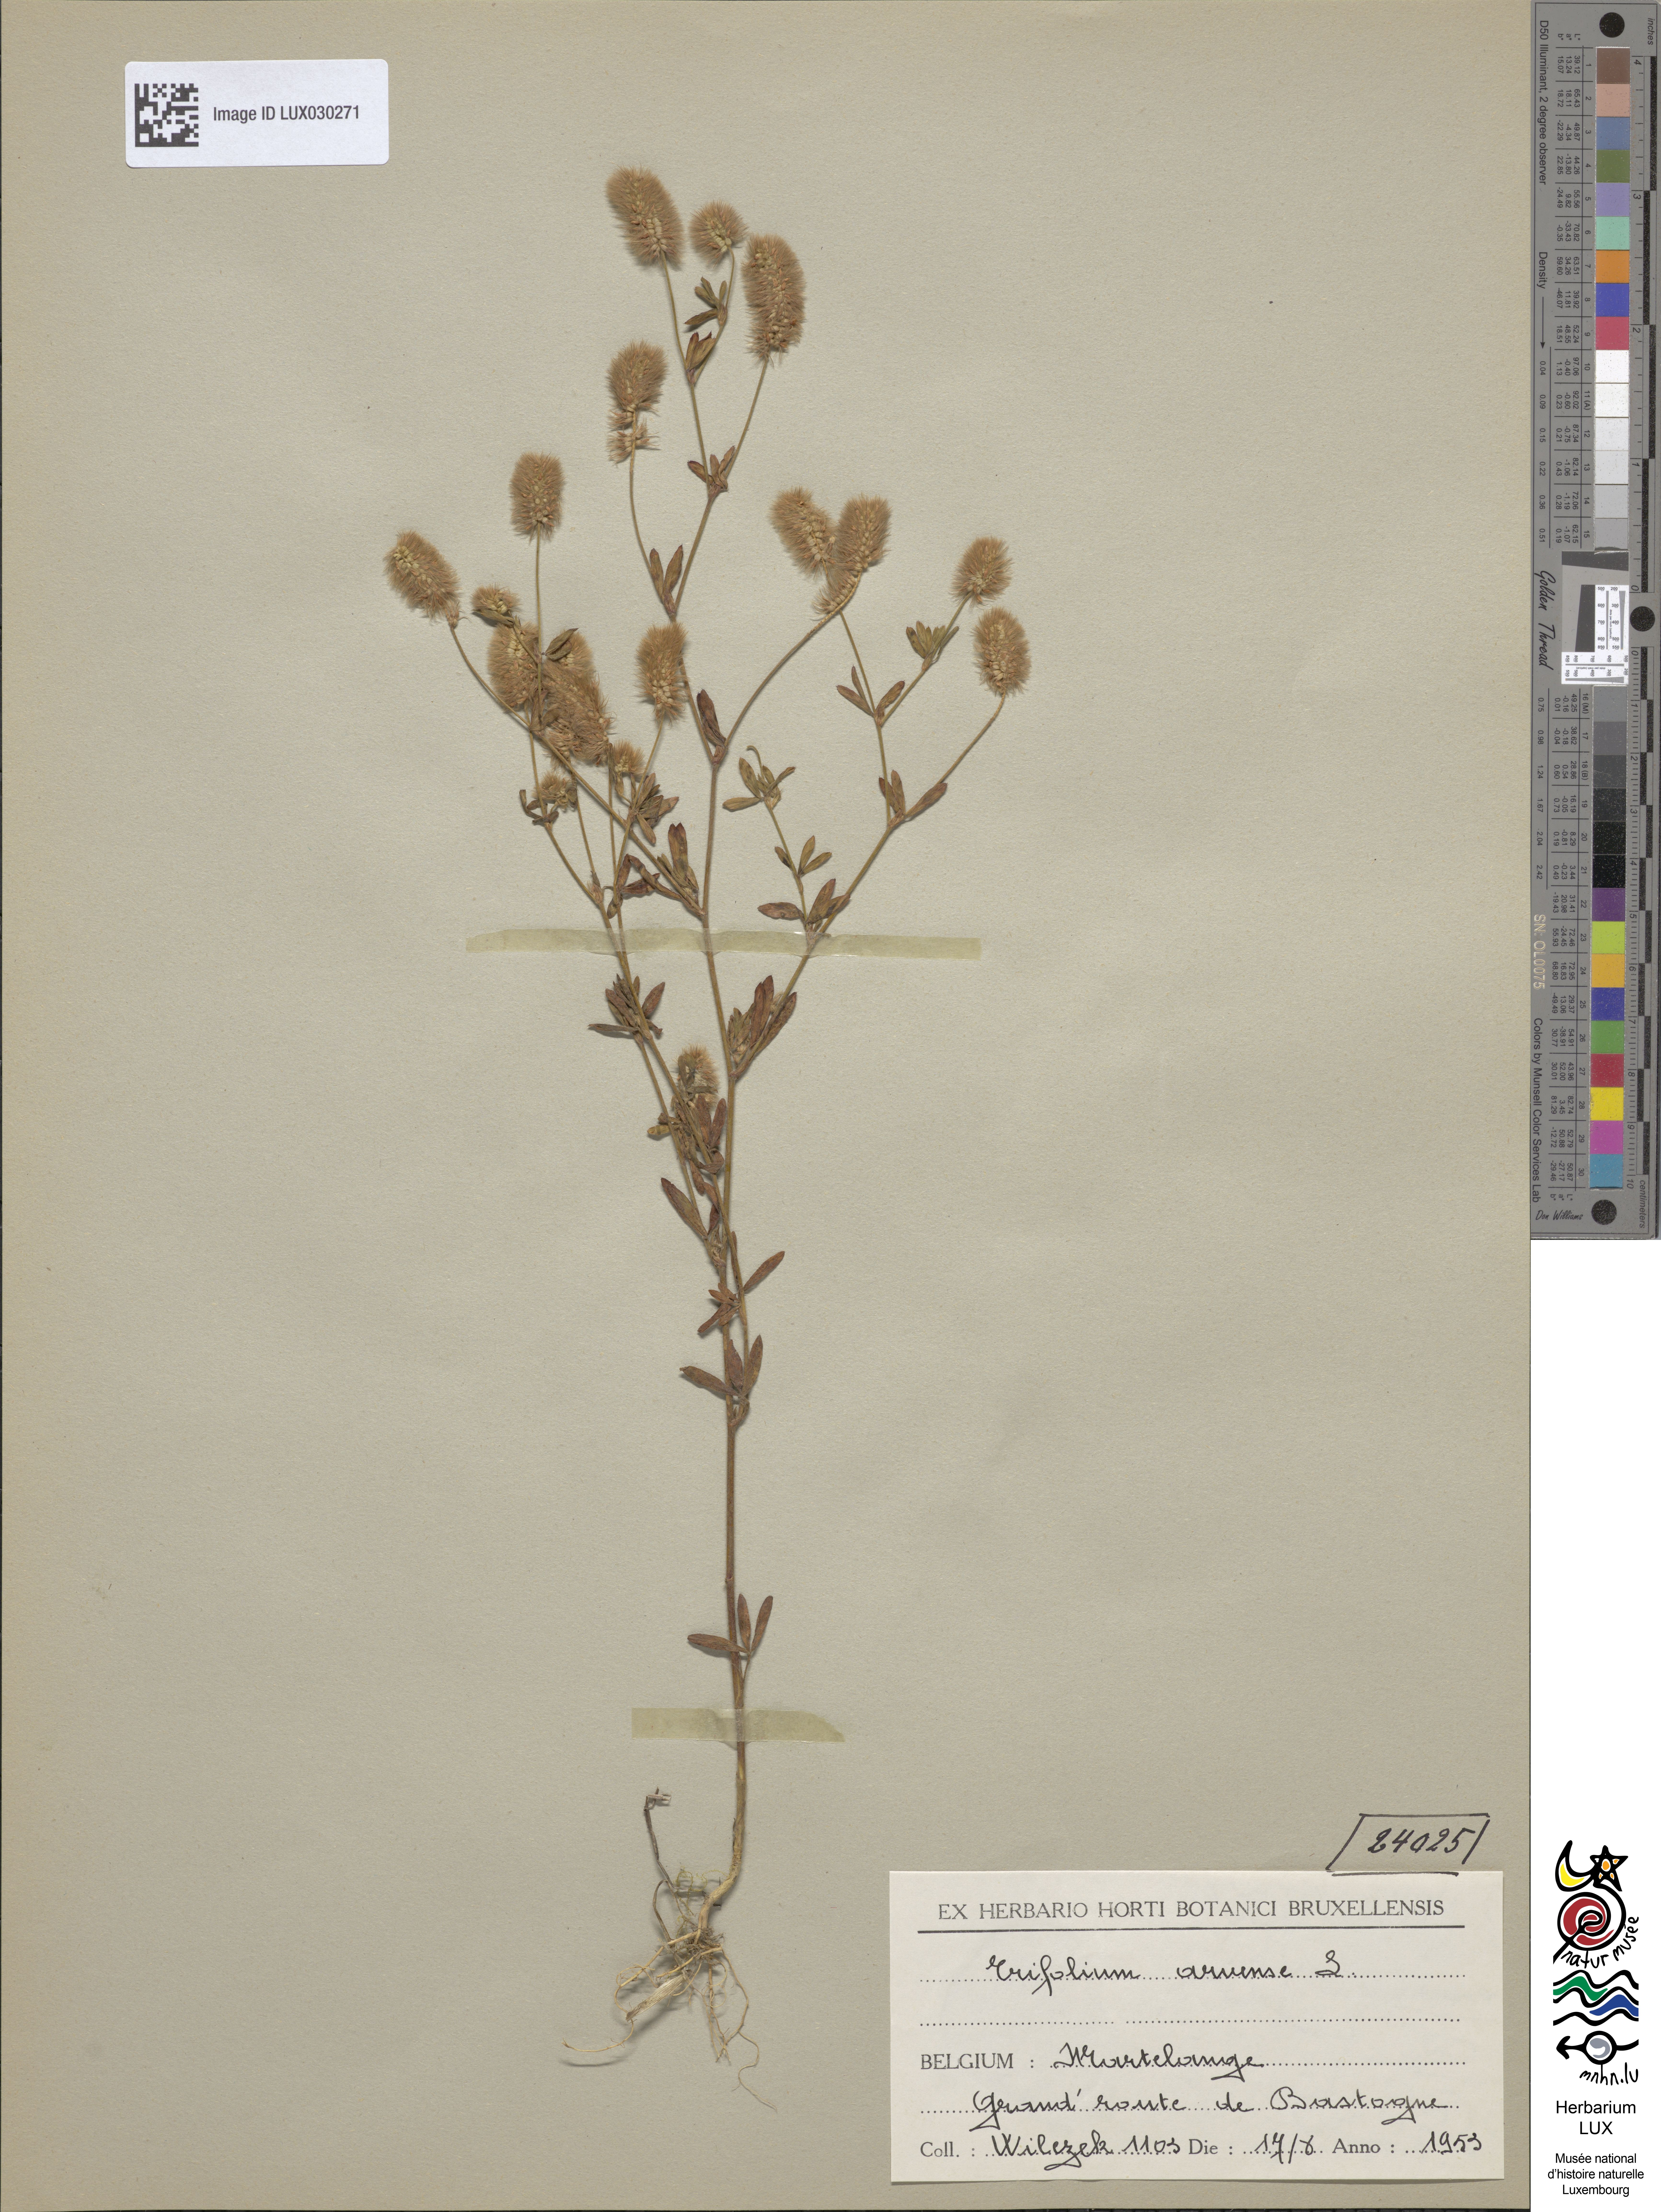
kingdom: Plantae
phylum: Tracheophyta
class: Magnoliopsida
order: Fabales
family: Fabaceae
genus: Trifolium
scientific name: Trifolium arvense
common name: Hare's-foot clover
